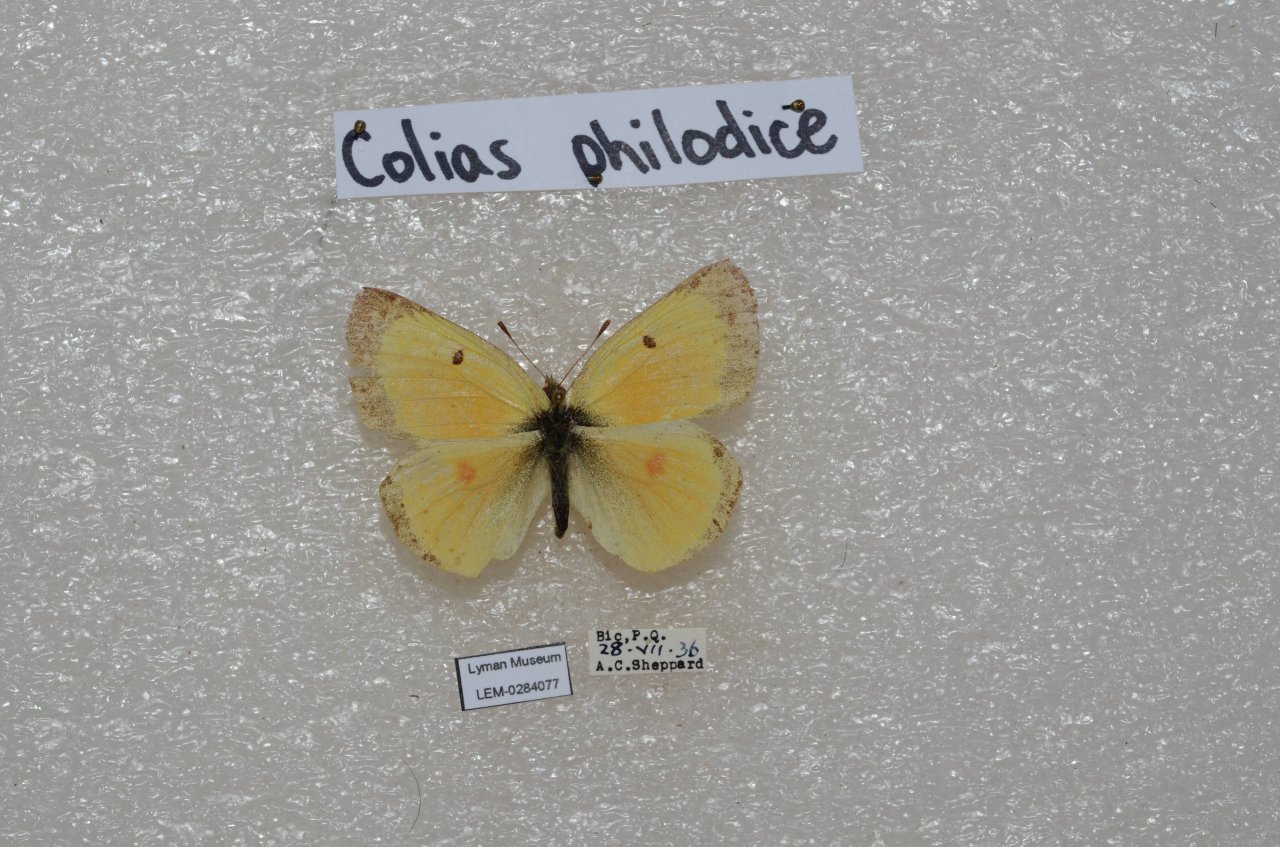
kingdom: Animalia
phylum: Arthropoda
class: Insecta
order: Lepidoptera
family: Pieridae
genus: Colias
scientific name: Colias philodice
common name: Clouded Sulphur
